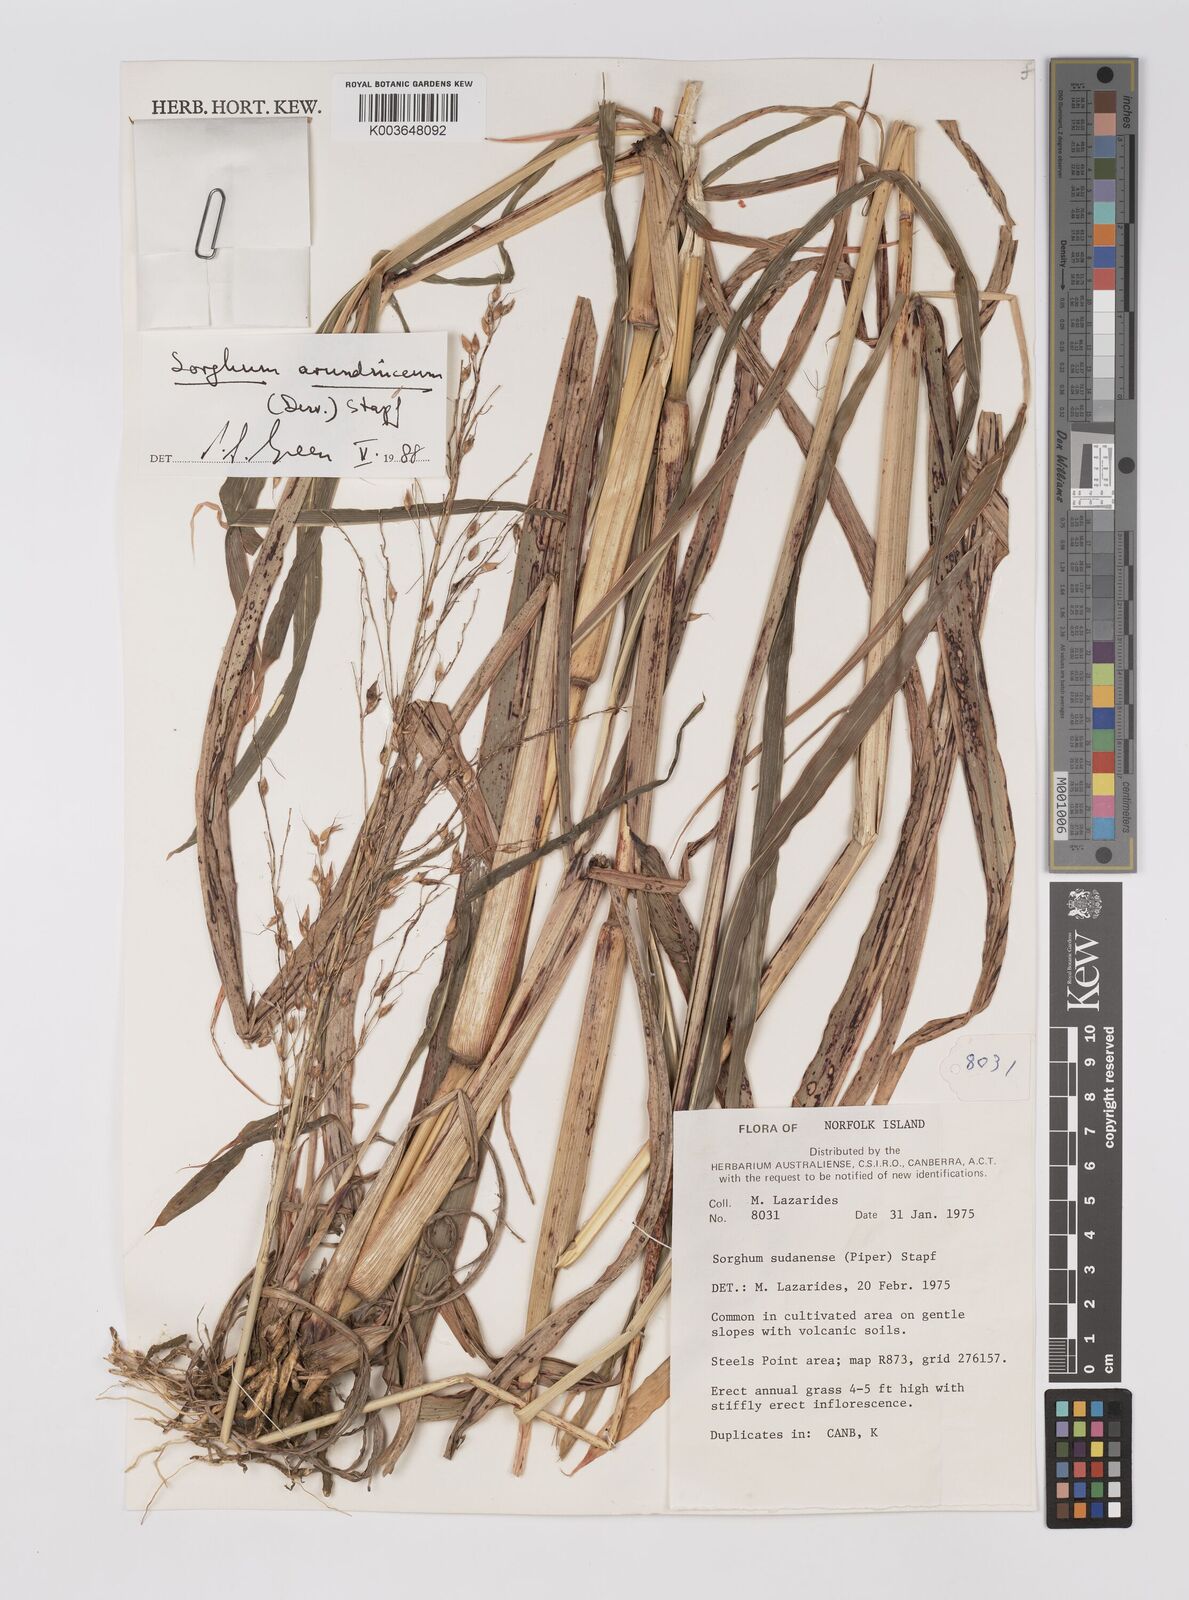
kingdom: Plantae
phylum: Tracheophyta
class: Liliopsida
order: Poales
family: Poaceae
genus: Sorghum
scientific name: Sorghum arundinaceum
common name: Sorghum
